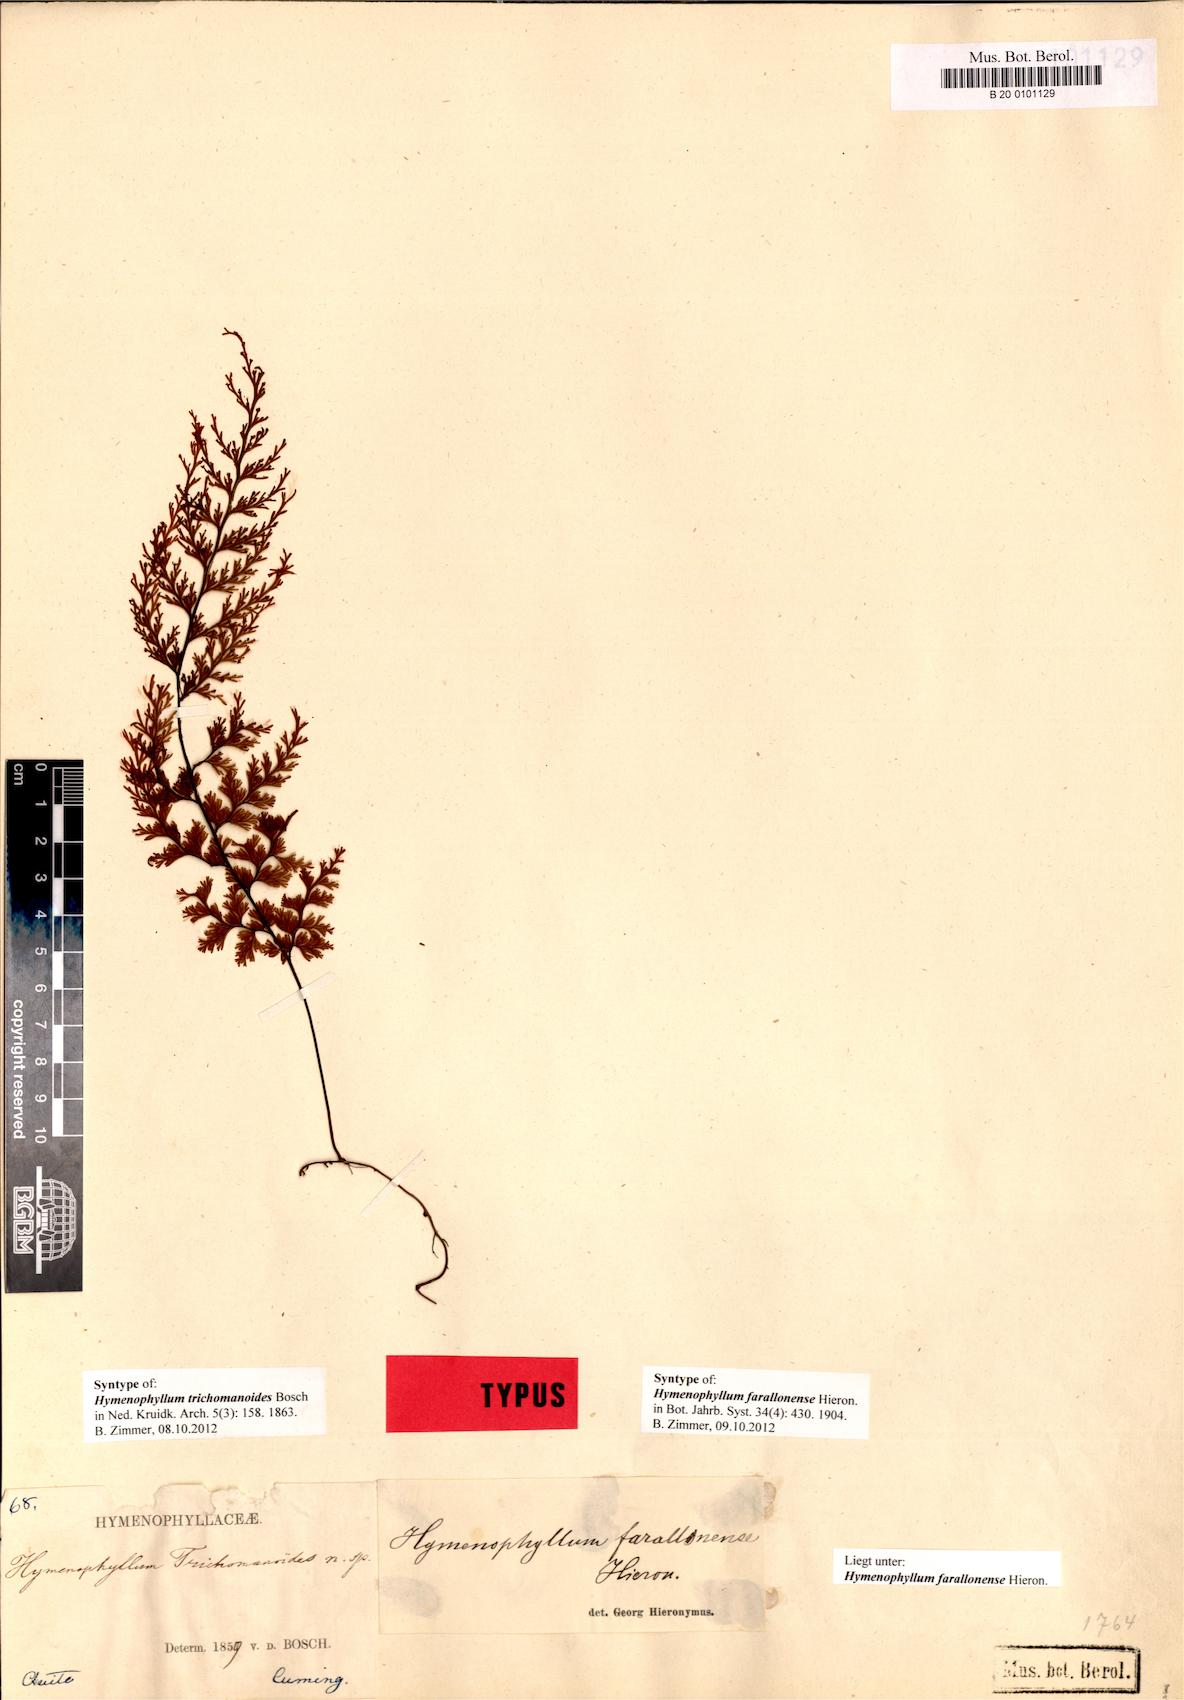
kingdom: Plantae
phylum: Tracheophyta
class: Polypodiopsida
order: Hymenophyllales
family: Hymenophyllaceae
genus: Hymenophyllum
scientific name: Hymenophyllum farallonense
